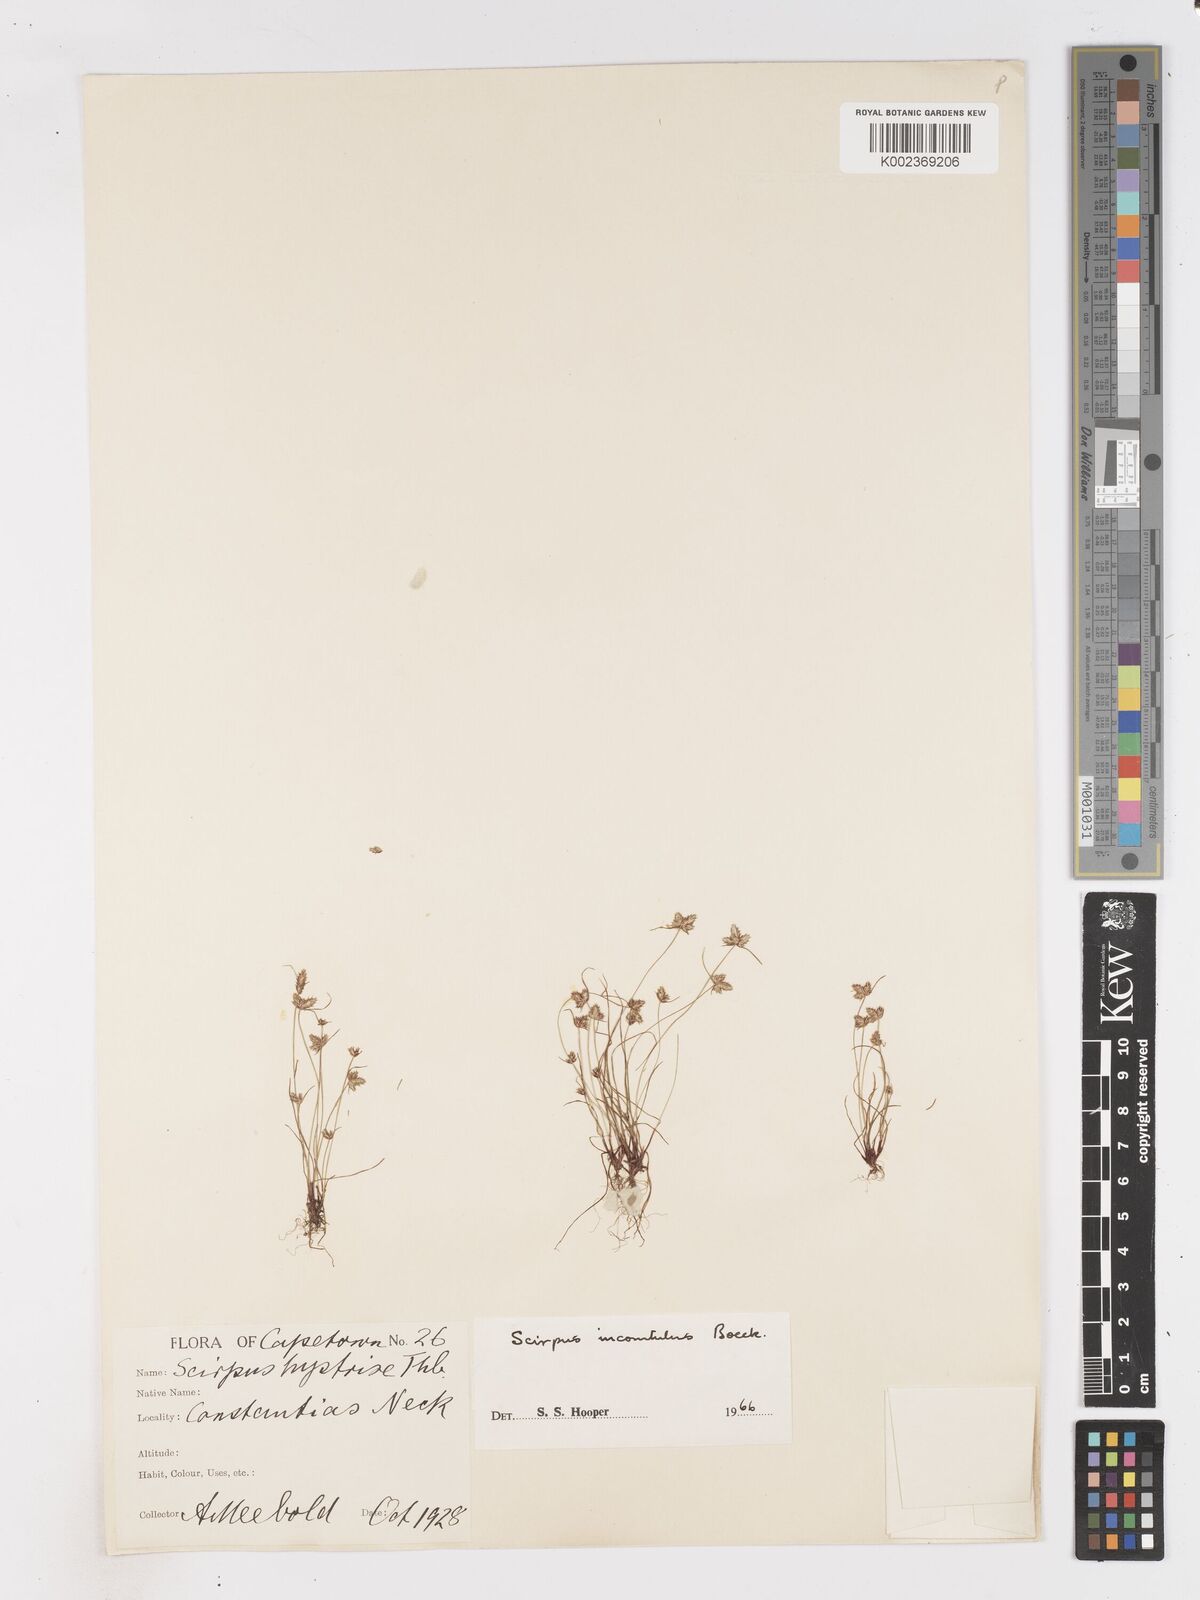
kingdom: Plantae
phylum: Tracheophyta
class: Liliopsida
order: Poales
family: Cyperaceae
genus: Ficinia
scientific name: Ficinia incomtula
